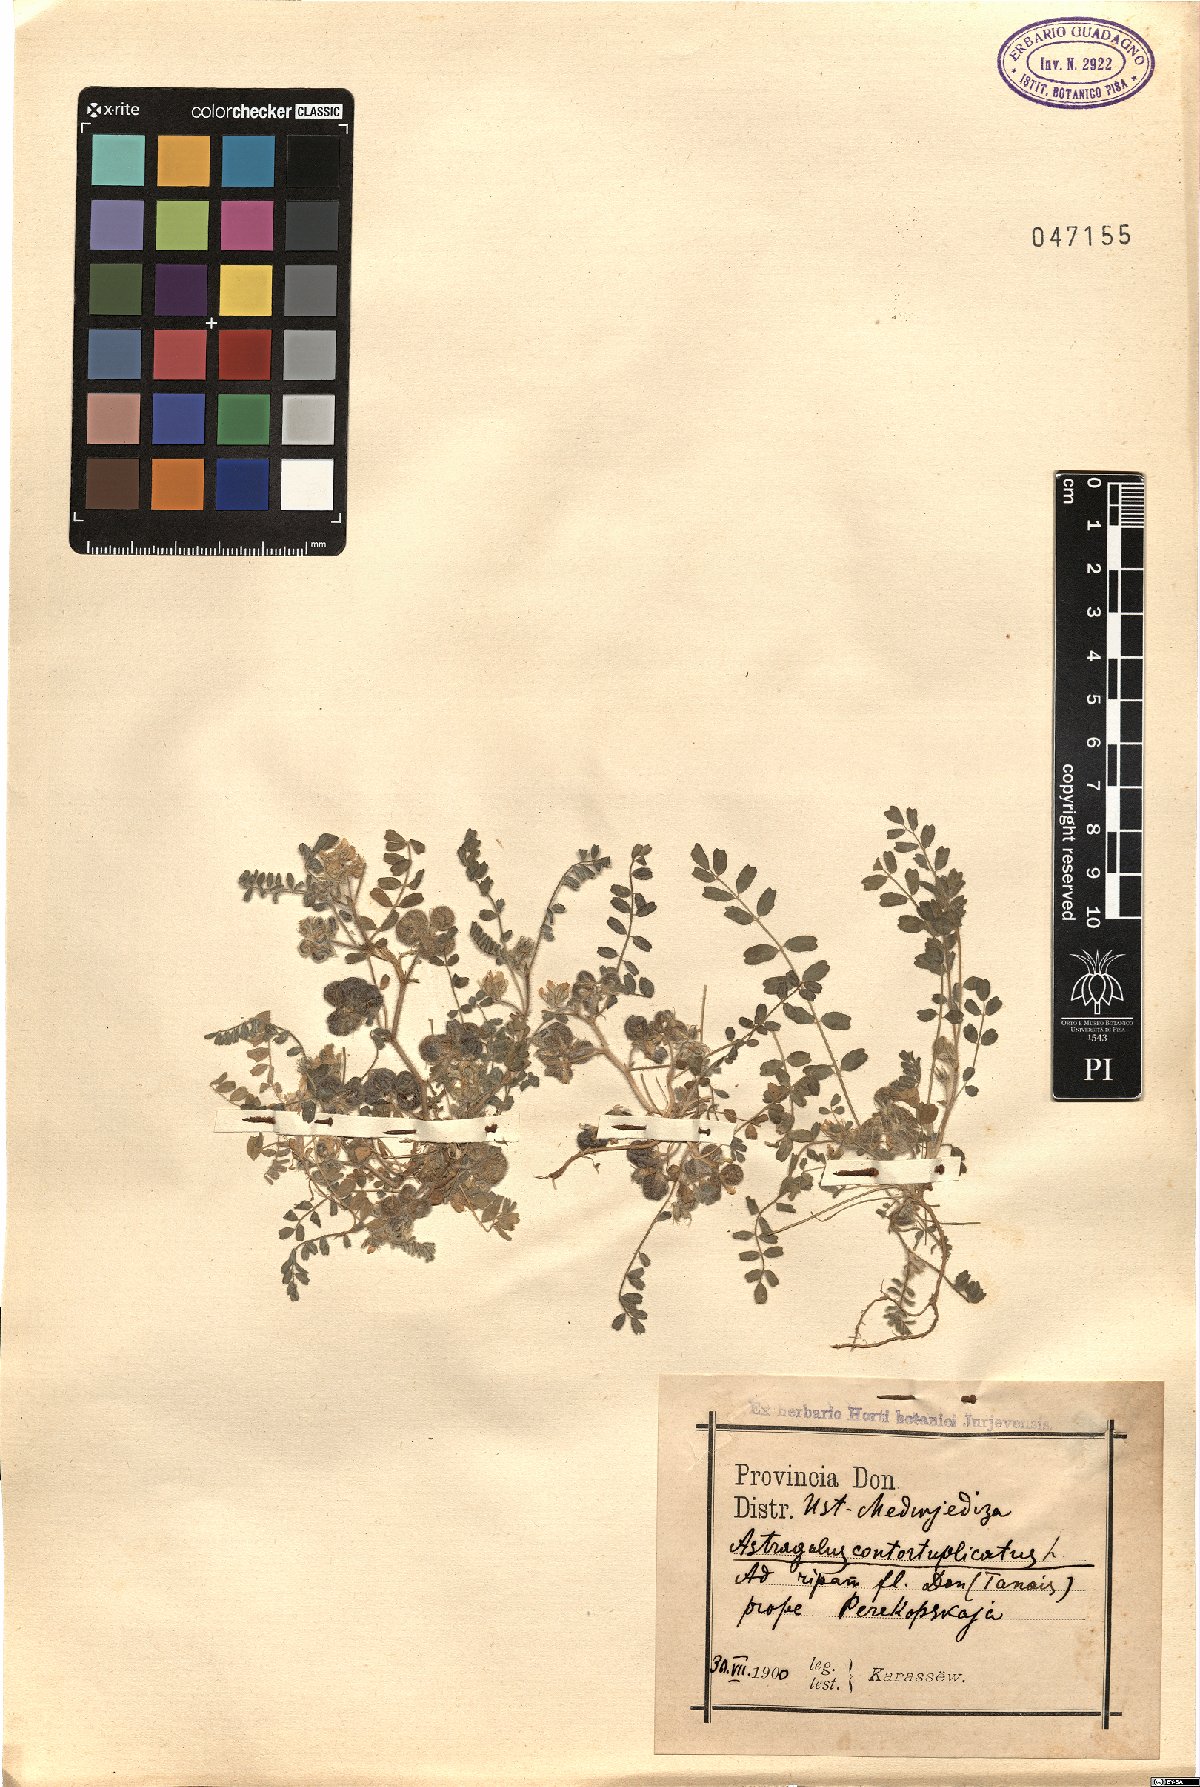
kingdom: Plantae
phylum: Tracheophyta
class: Magnoliopsida
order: Fabales
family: Fabaceae
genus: Astragalus
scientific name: Astragalus contortuplicatus
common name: Hungarian milkvetch
